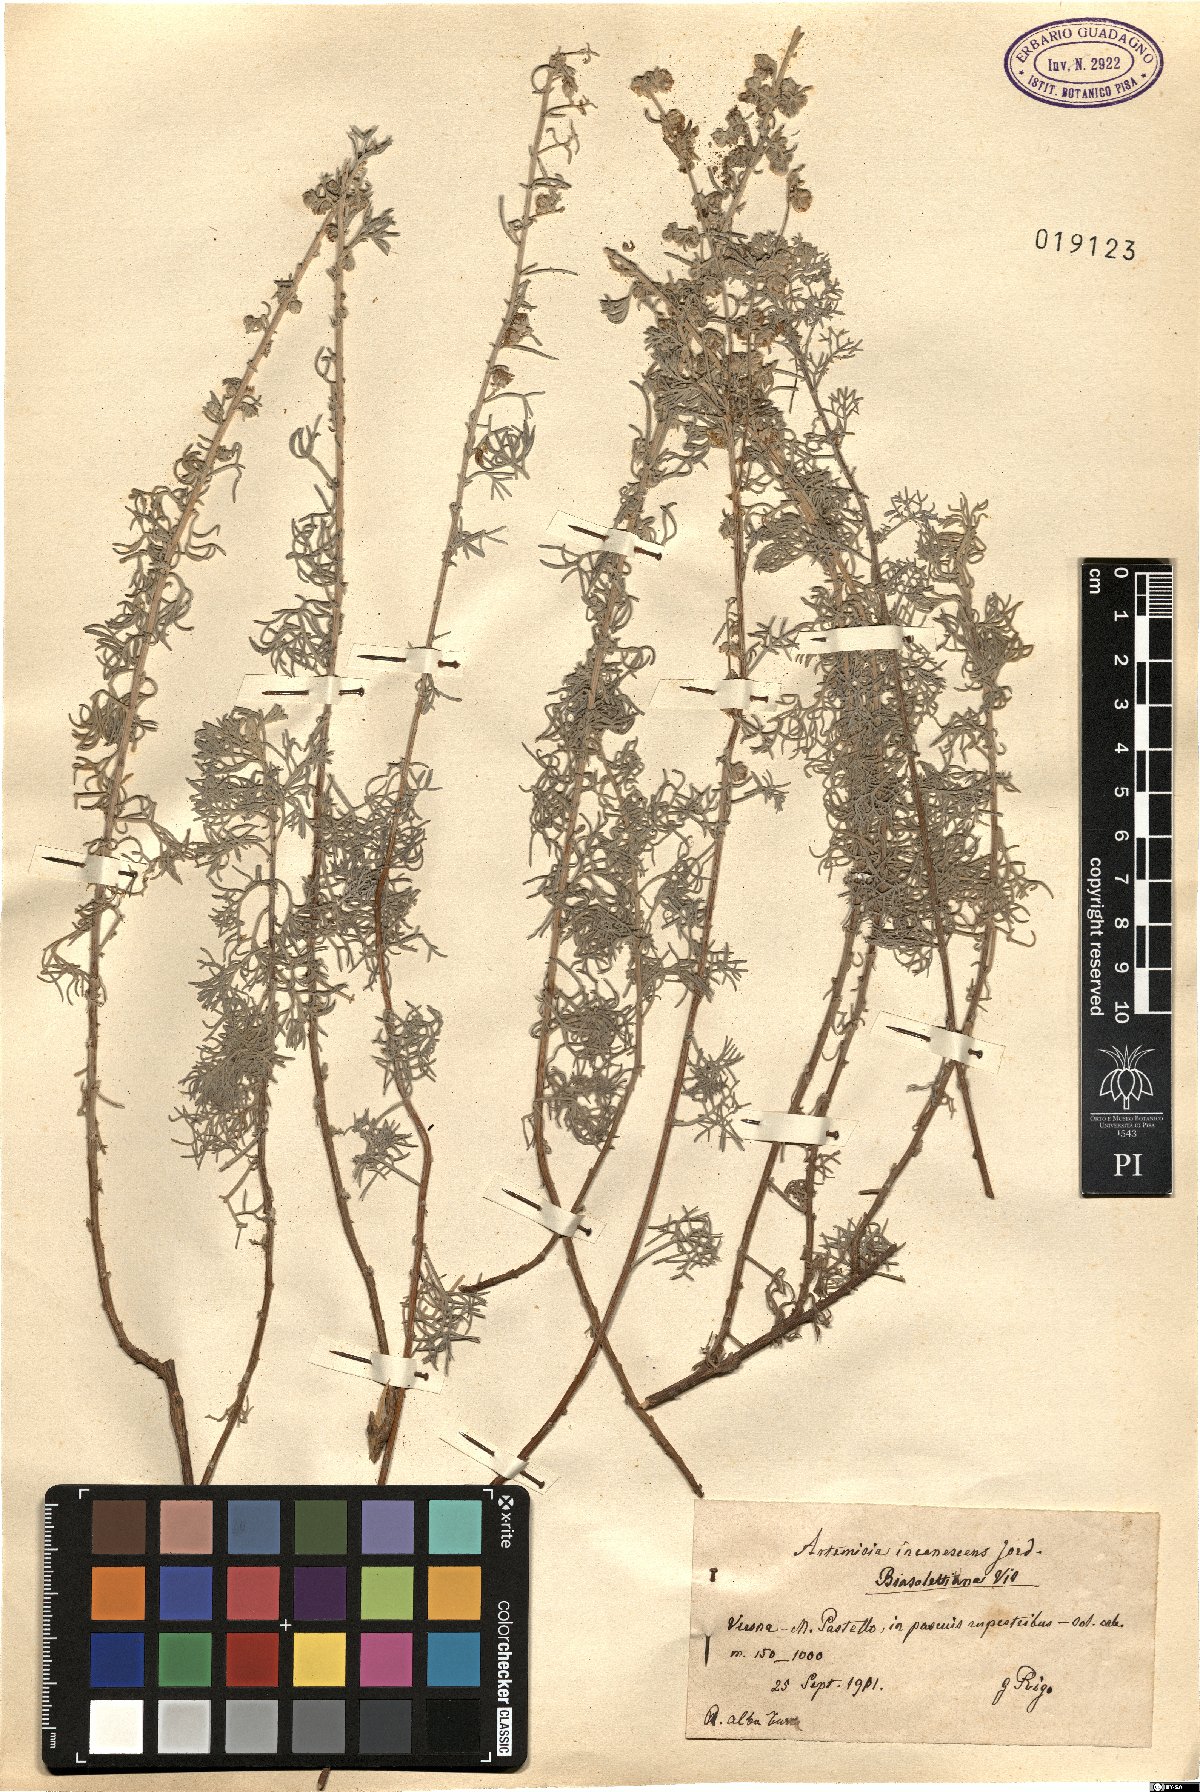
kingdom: Plantae
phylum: Tracheophyta
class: Magnoliopsida
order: Asterales
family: Asteraceae
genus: Artemisia
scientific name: Artemisia alba
